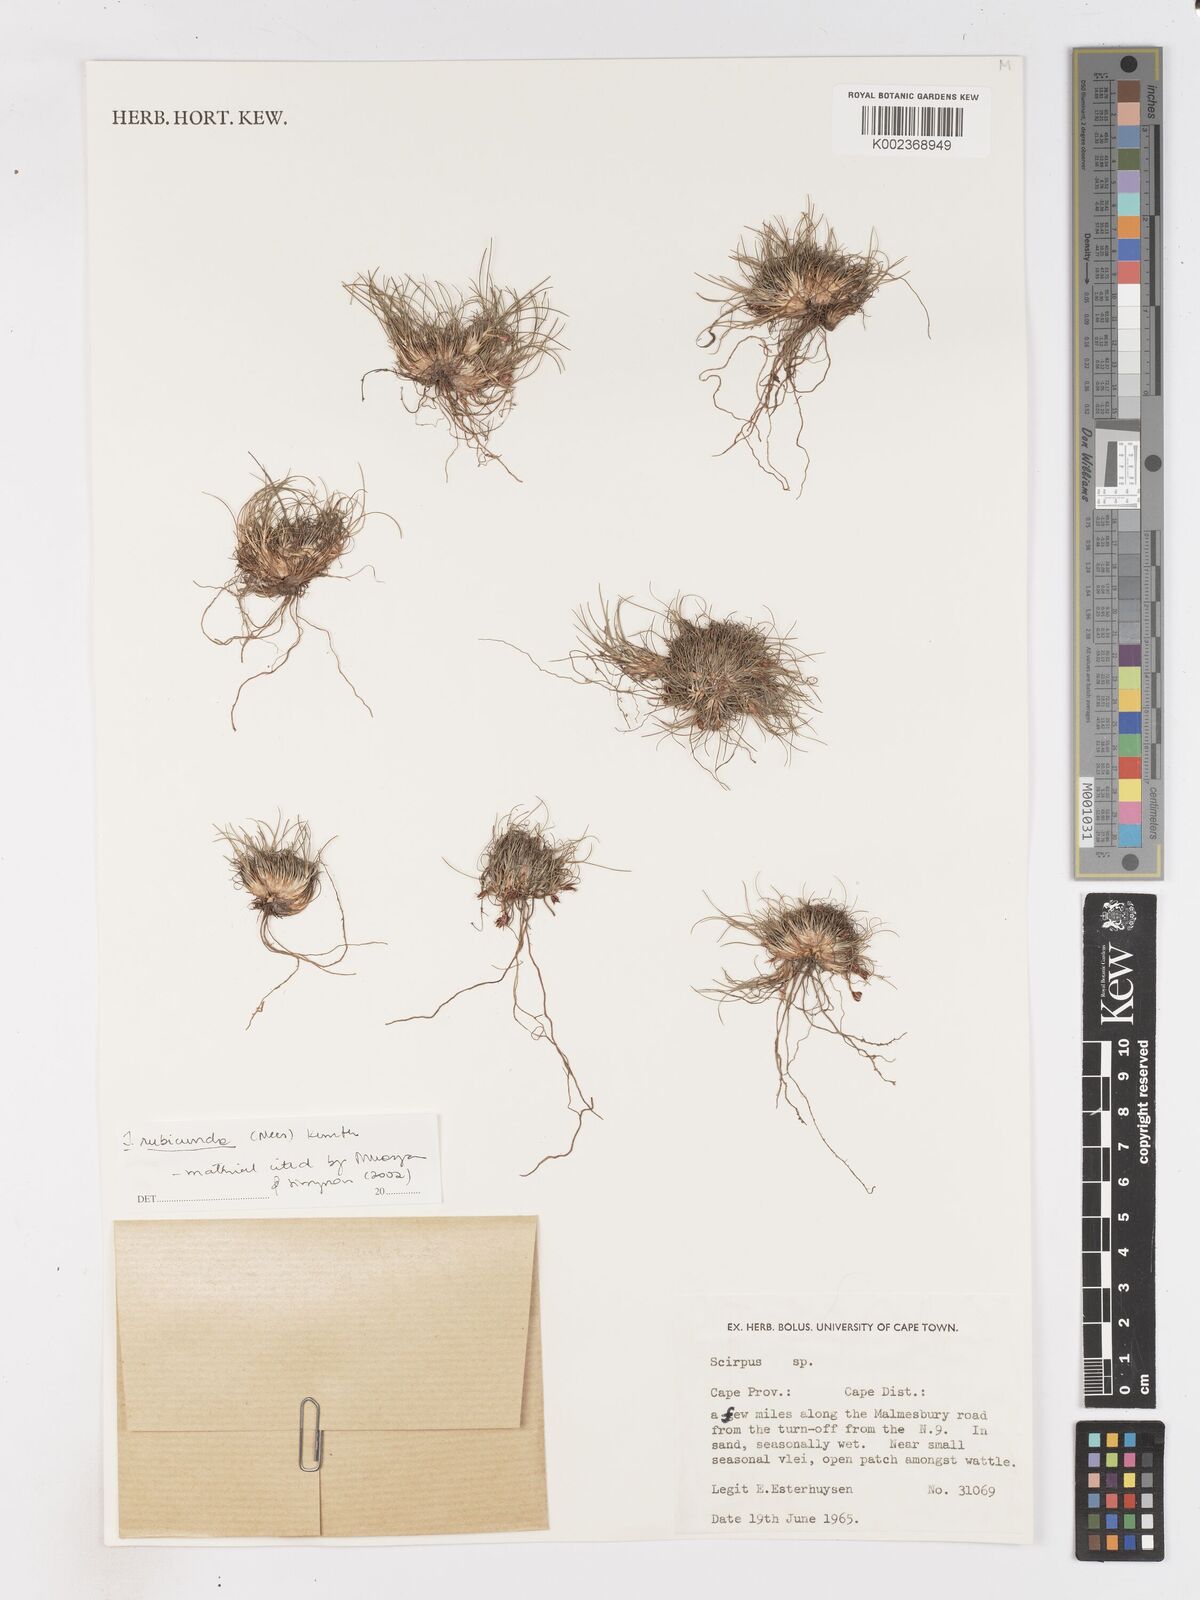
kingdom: Plantae
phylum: Tracheophyta
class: Liliopsida
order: Poales
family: Cyperaceae
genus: Isolepis
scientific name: Isolepis rubicunda
